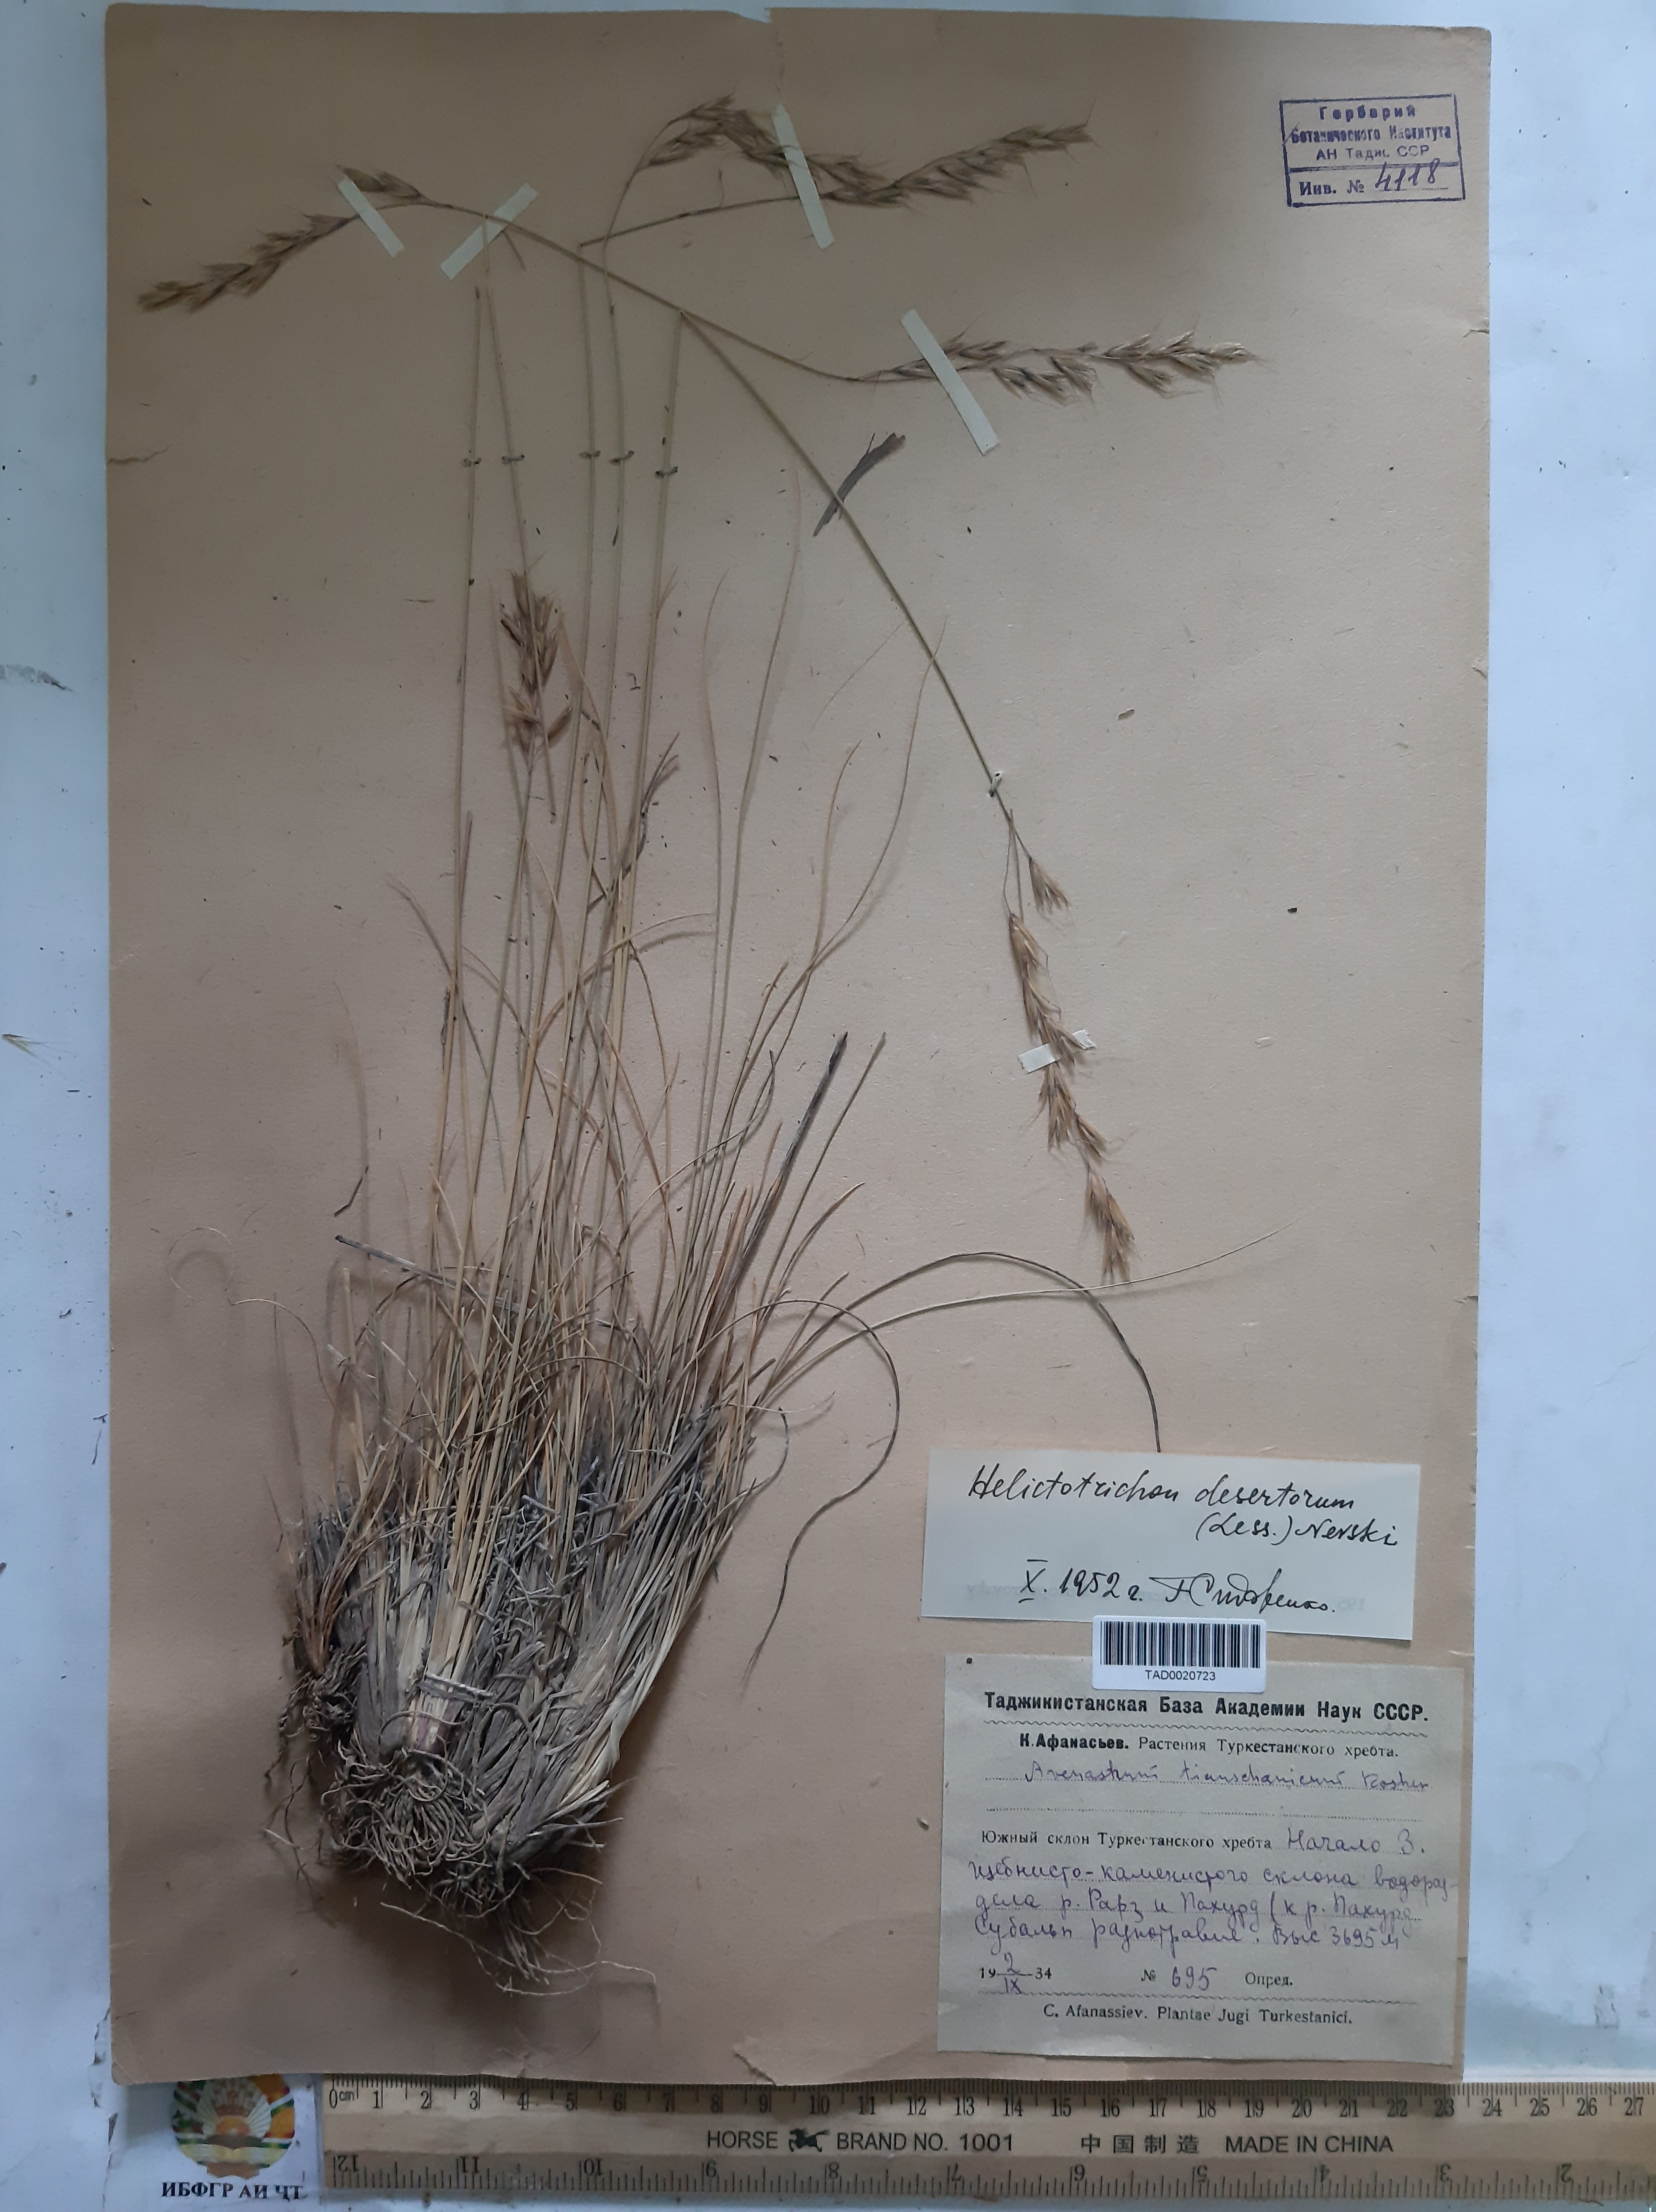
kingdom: Plantae
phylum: Tracheophyta
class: Liliopsida
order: Poales
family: Poaceae
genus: Helictotrichon
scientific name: Helictotrichon desertorum
